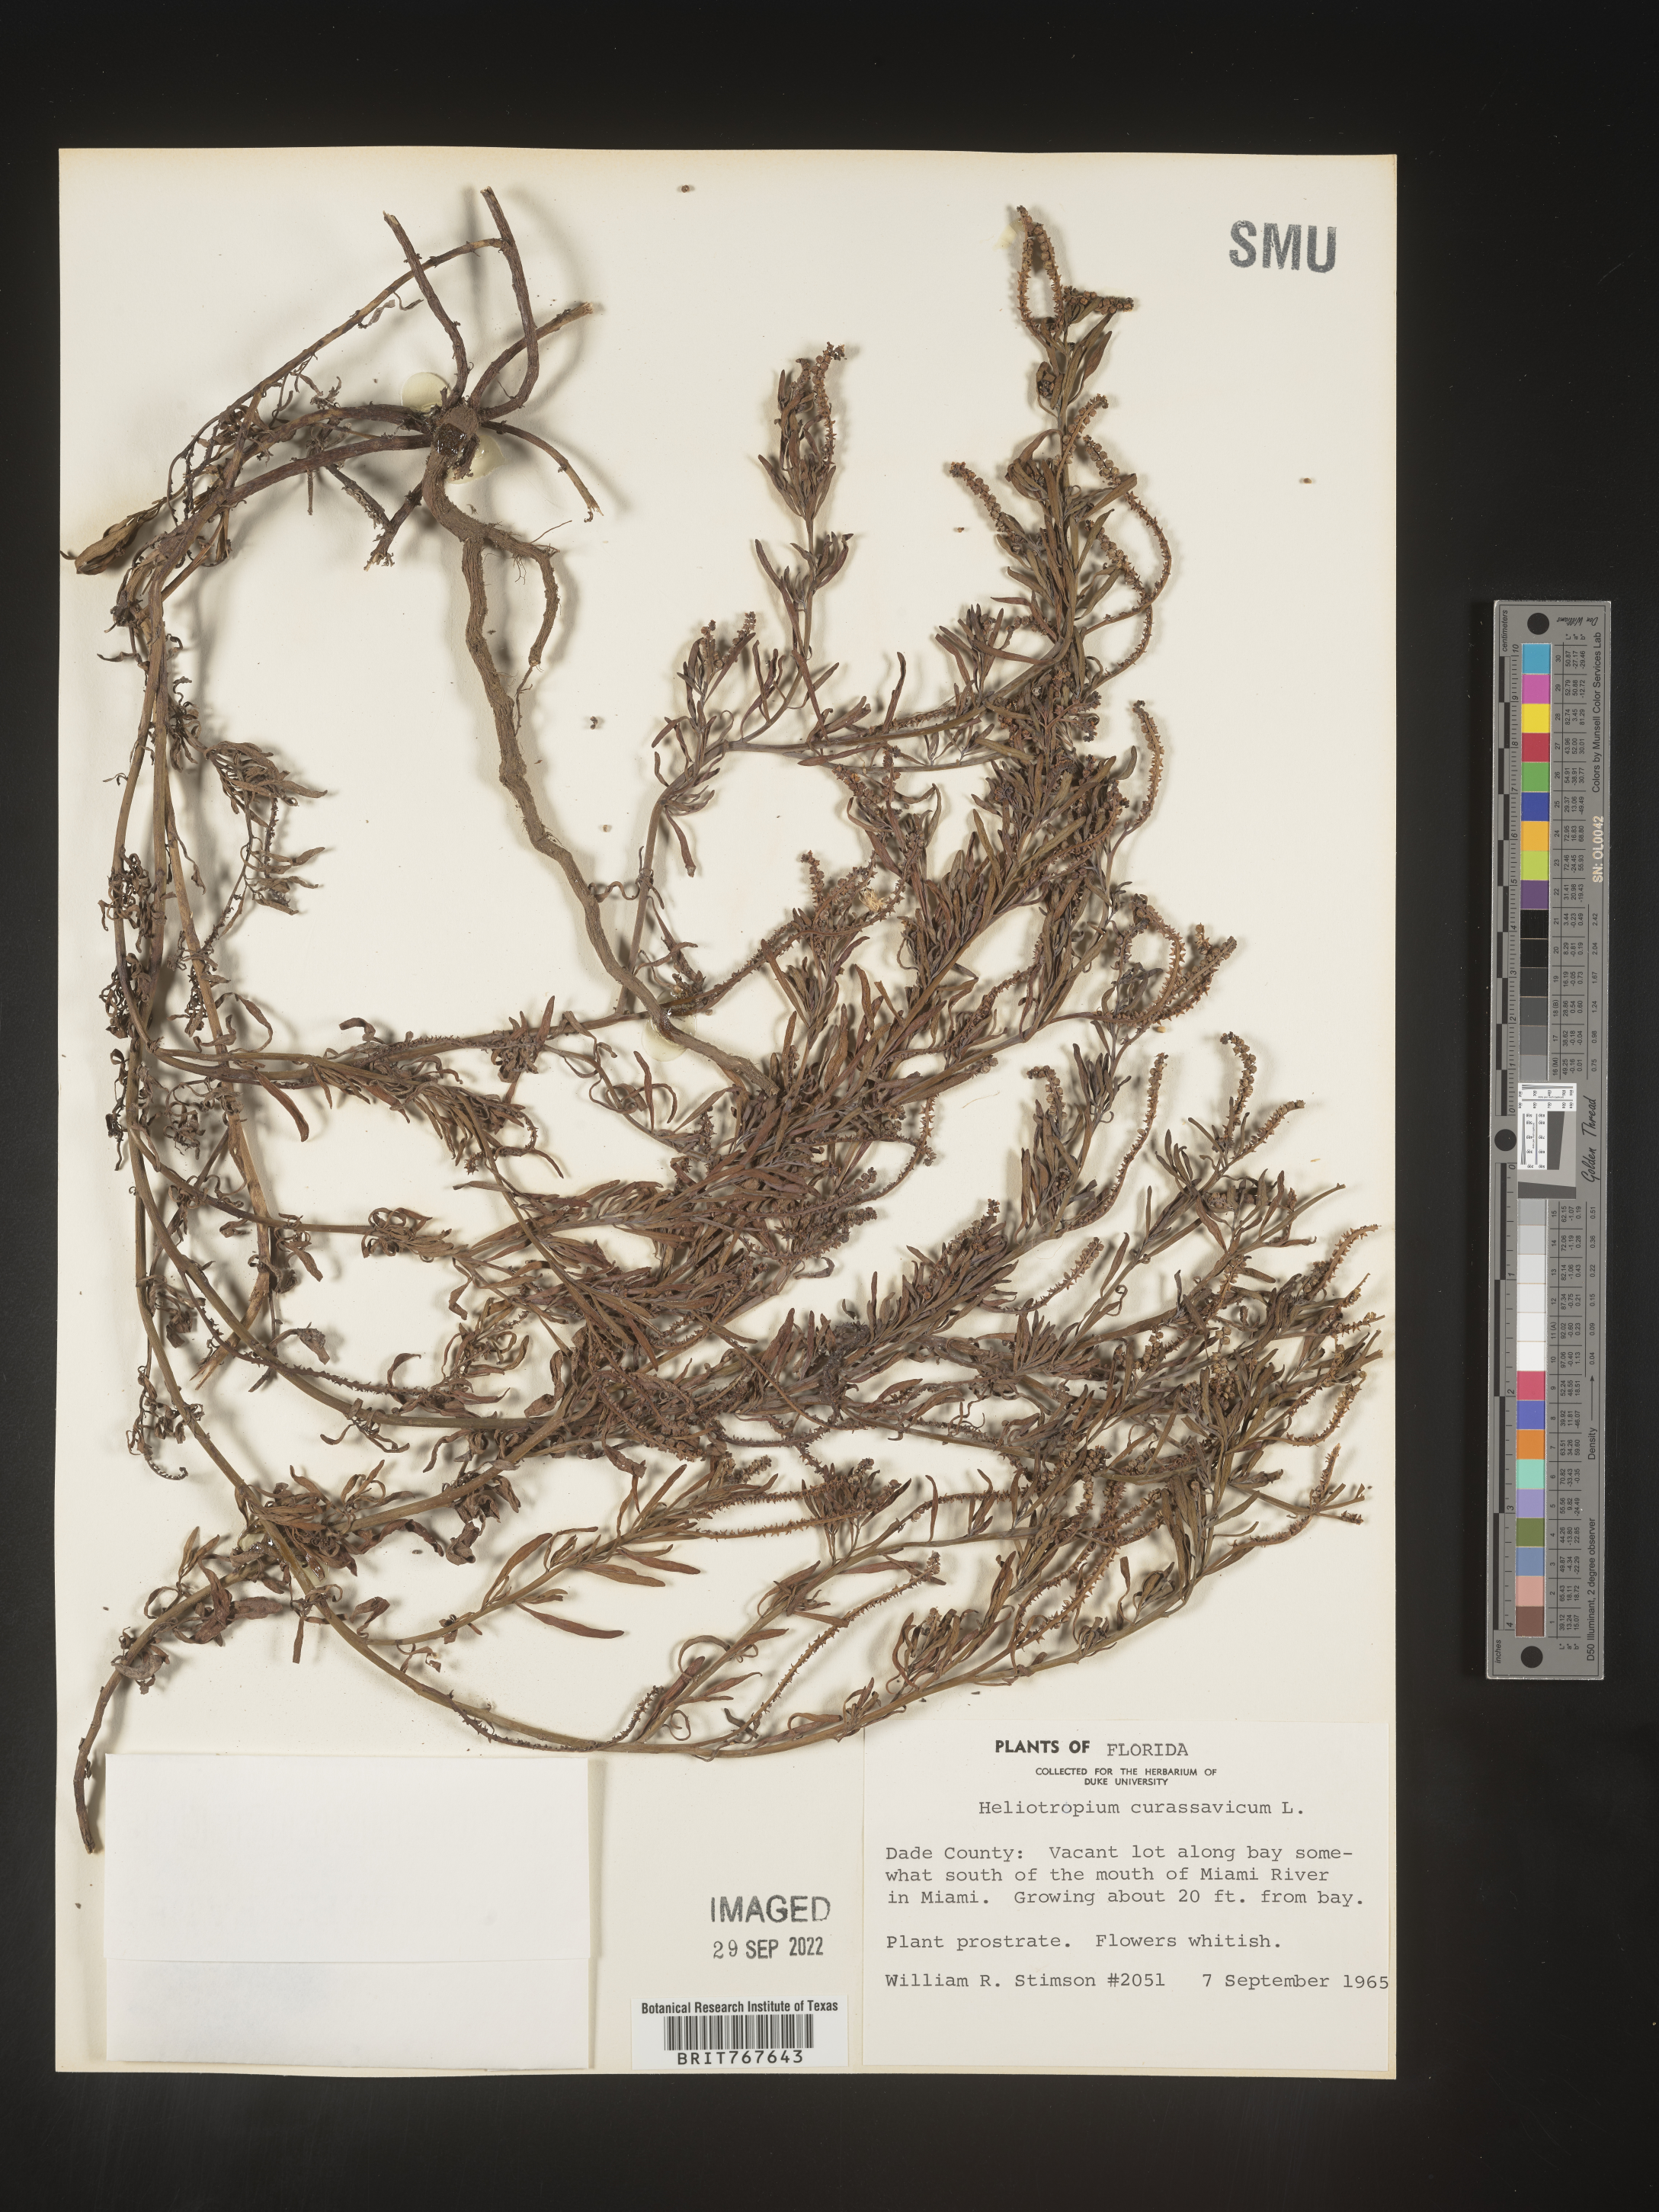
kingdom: Plantae
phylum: Tracheophyta
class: Magnoliopsida
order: Boraginales
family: Heliotropiaceae
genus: Heliotropium
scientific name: Heliotropium curassavicum
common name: Seaside heliotrope
